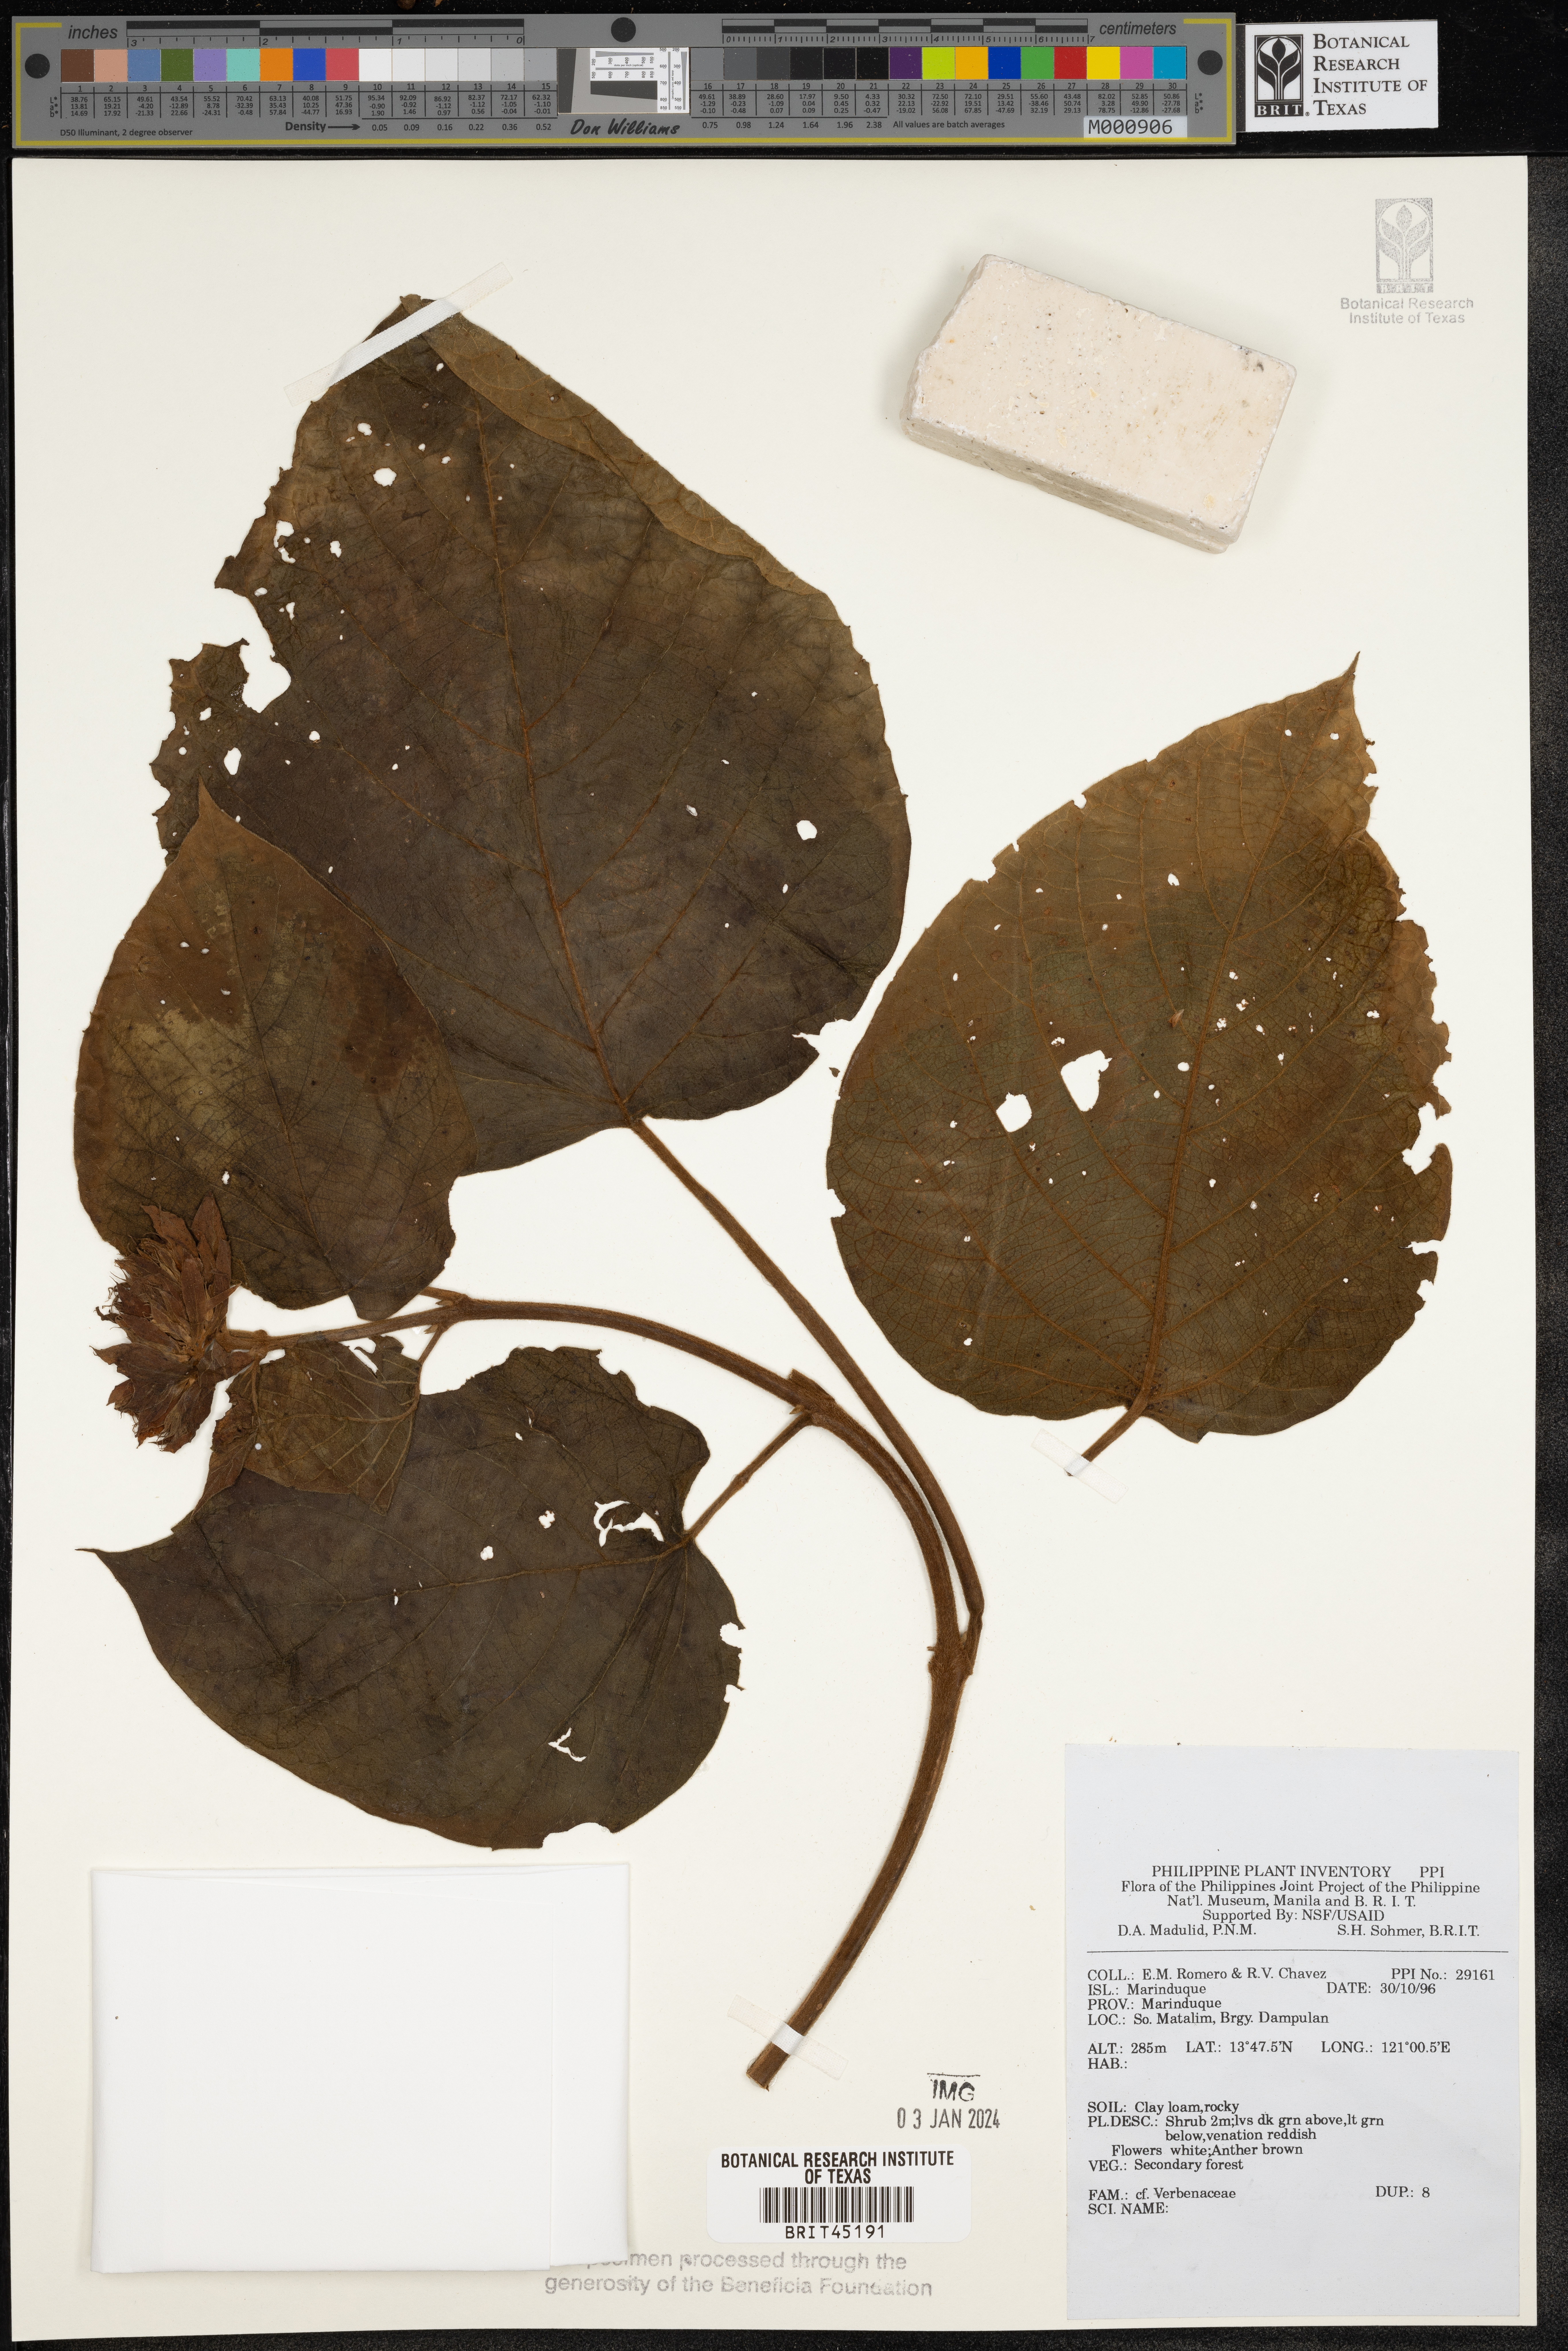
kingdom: Plantae
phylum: Tracheophyta
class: Magnoliopsida
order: Lamiales
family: Verbenaceae
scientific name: Verbenaceae
